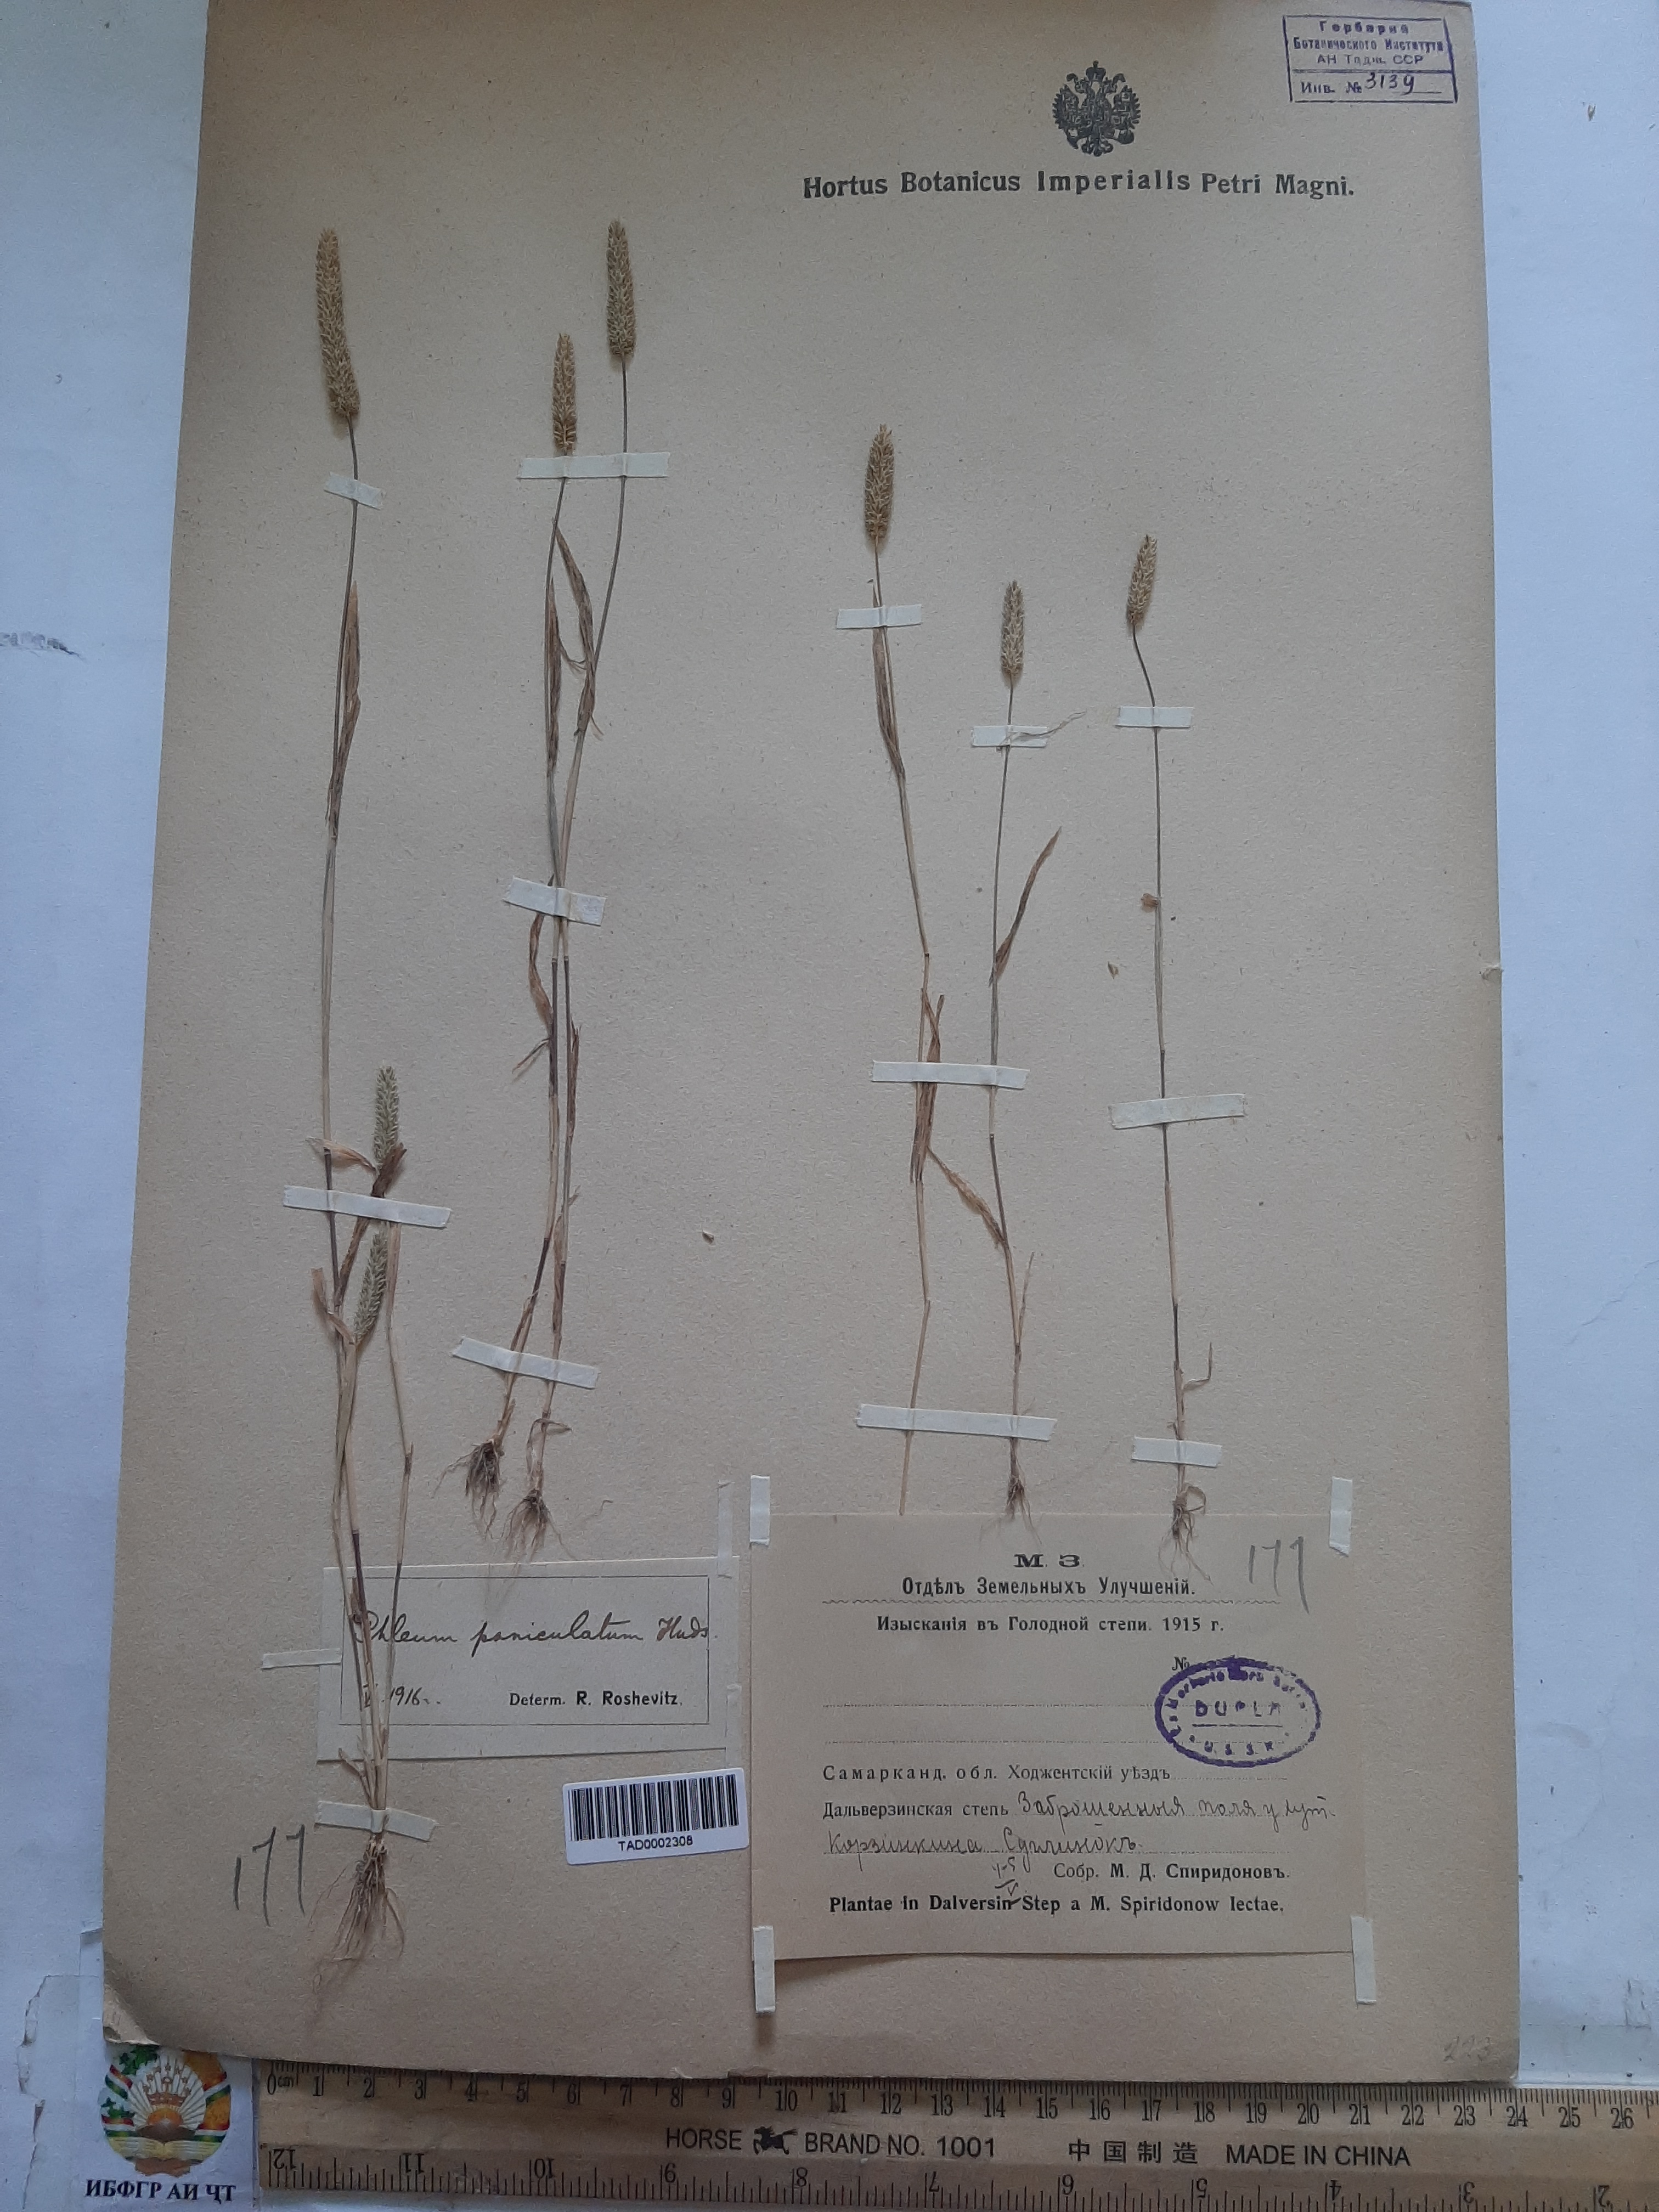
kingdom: Plantae
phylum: Tracheophyta
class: Liliopsida
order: Poales
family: Poaceae
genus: Phleum
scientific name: Phleum paniculatum
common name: British timothy
